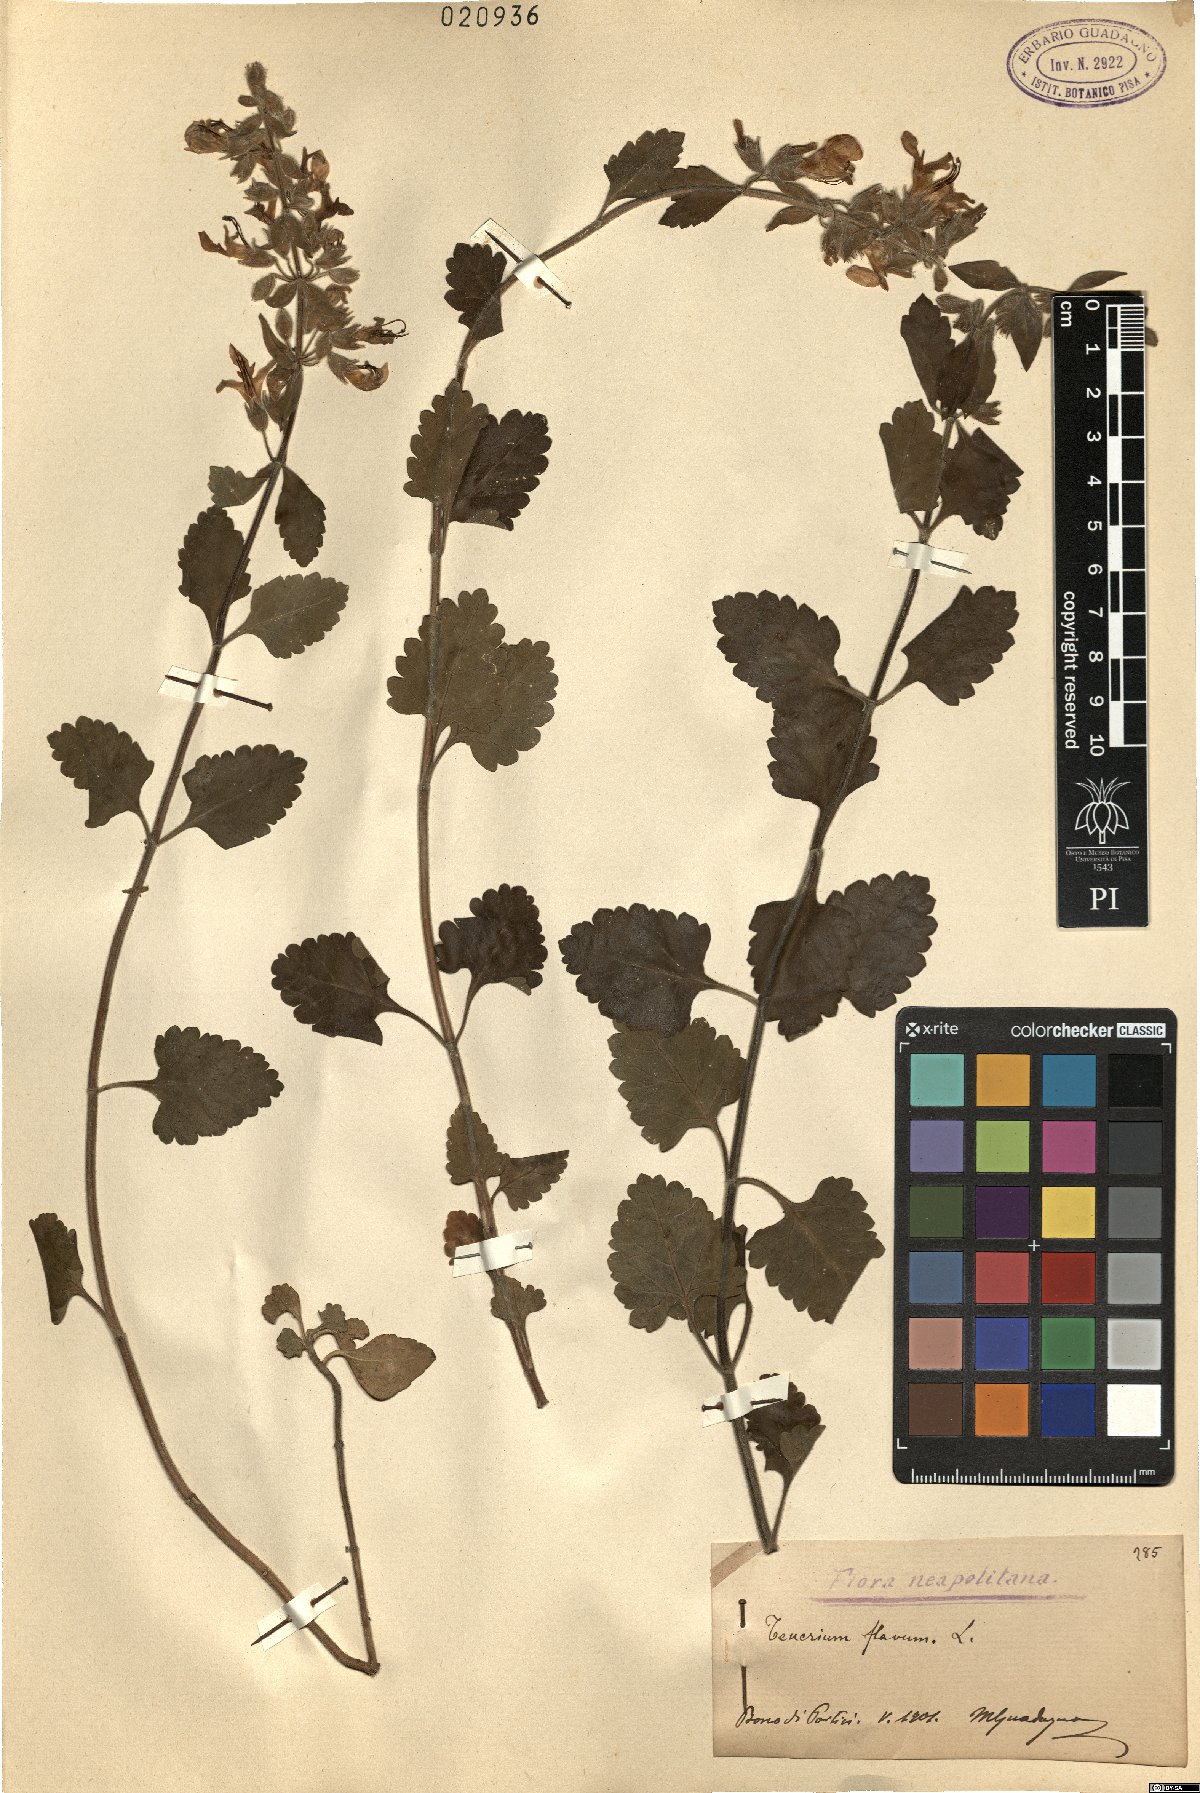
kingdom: Plantae
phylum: Tracheophyta
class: Magnoliopsida
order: Lamiales
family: Lamiaceae
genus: Teucrium
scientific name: Teucrium flavum
